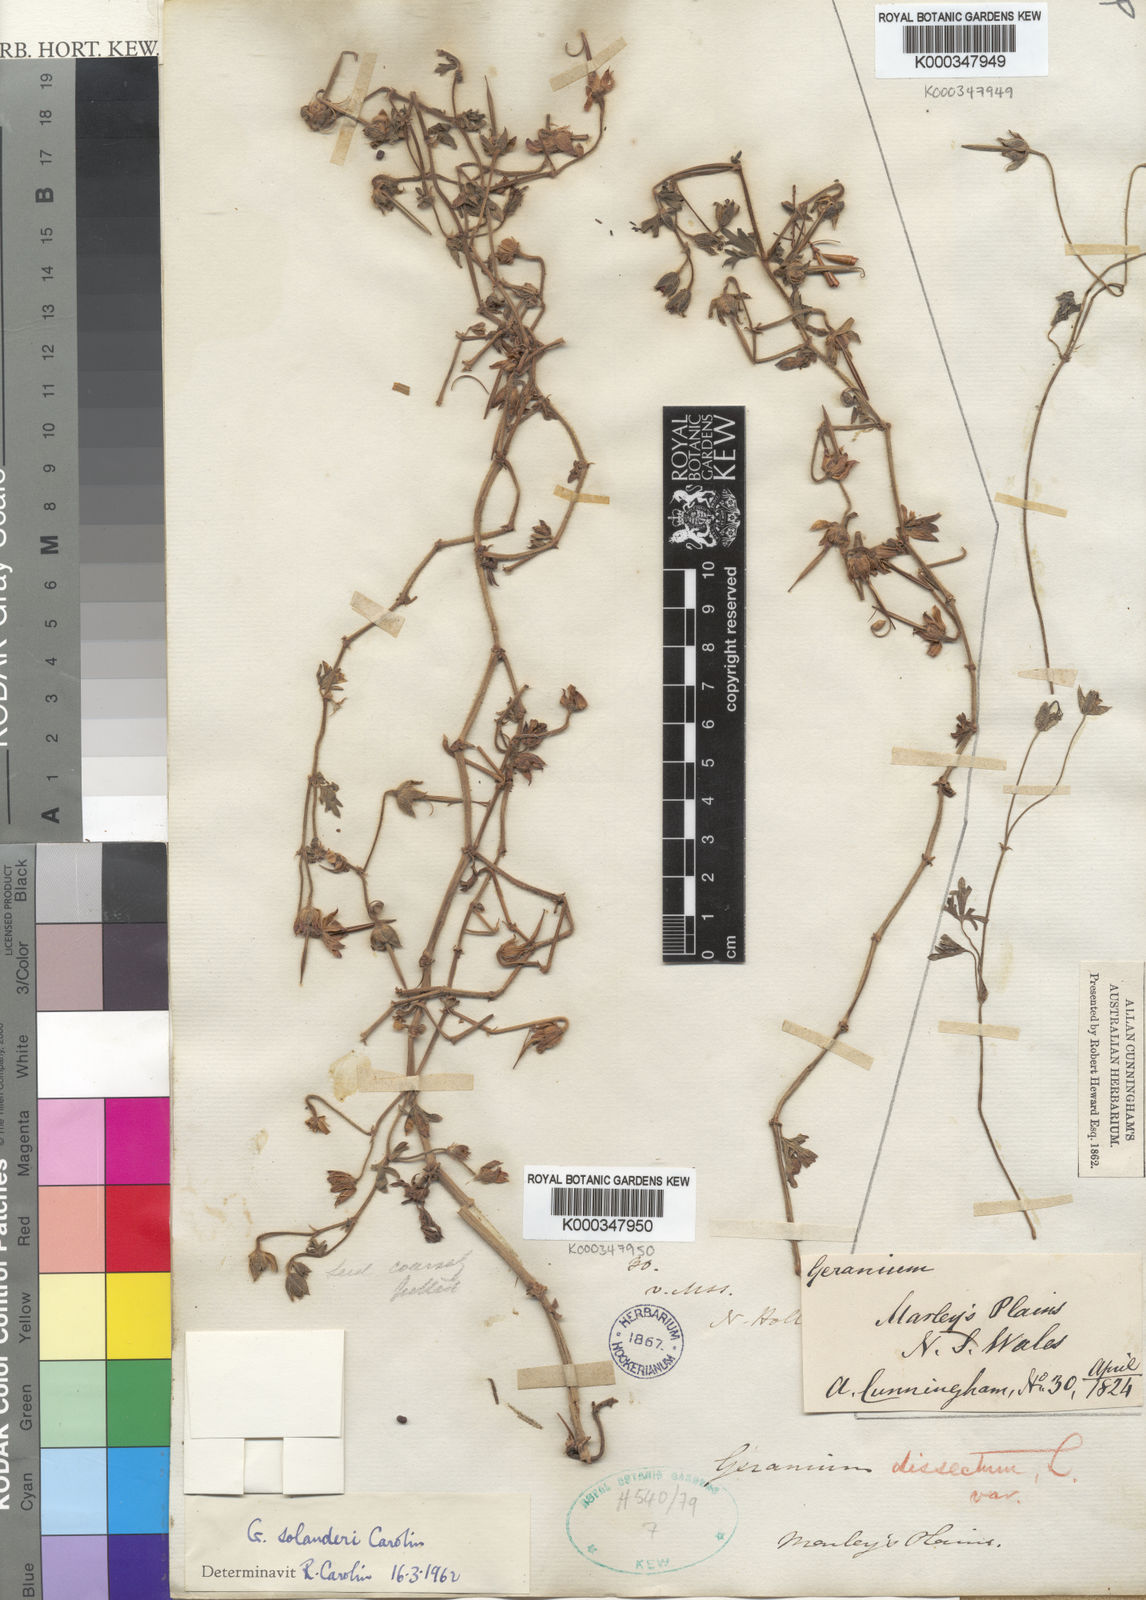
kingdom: Plantae
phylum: Tracheophyta
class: Magnoliopsida
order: Geraniales
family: Geraniaceae
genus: Geranium
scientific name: Geranium solanderi
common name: Solander's geranium
